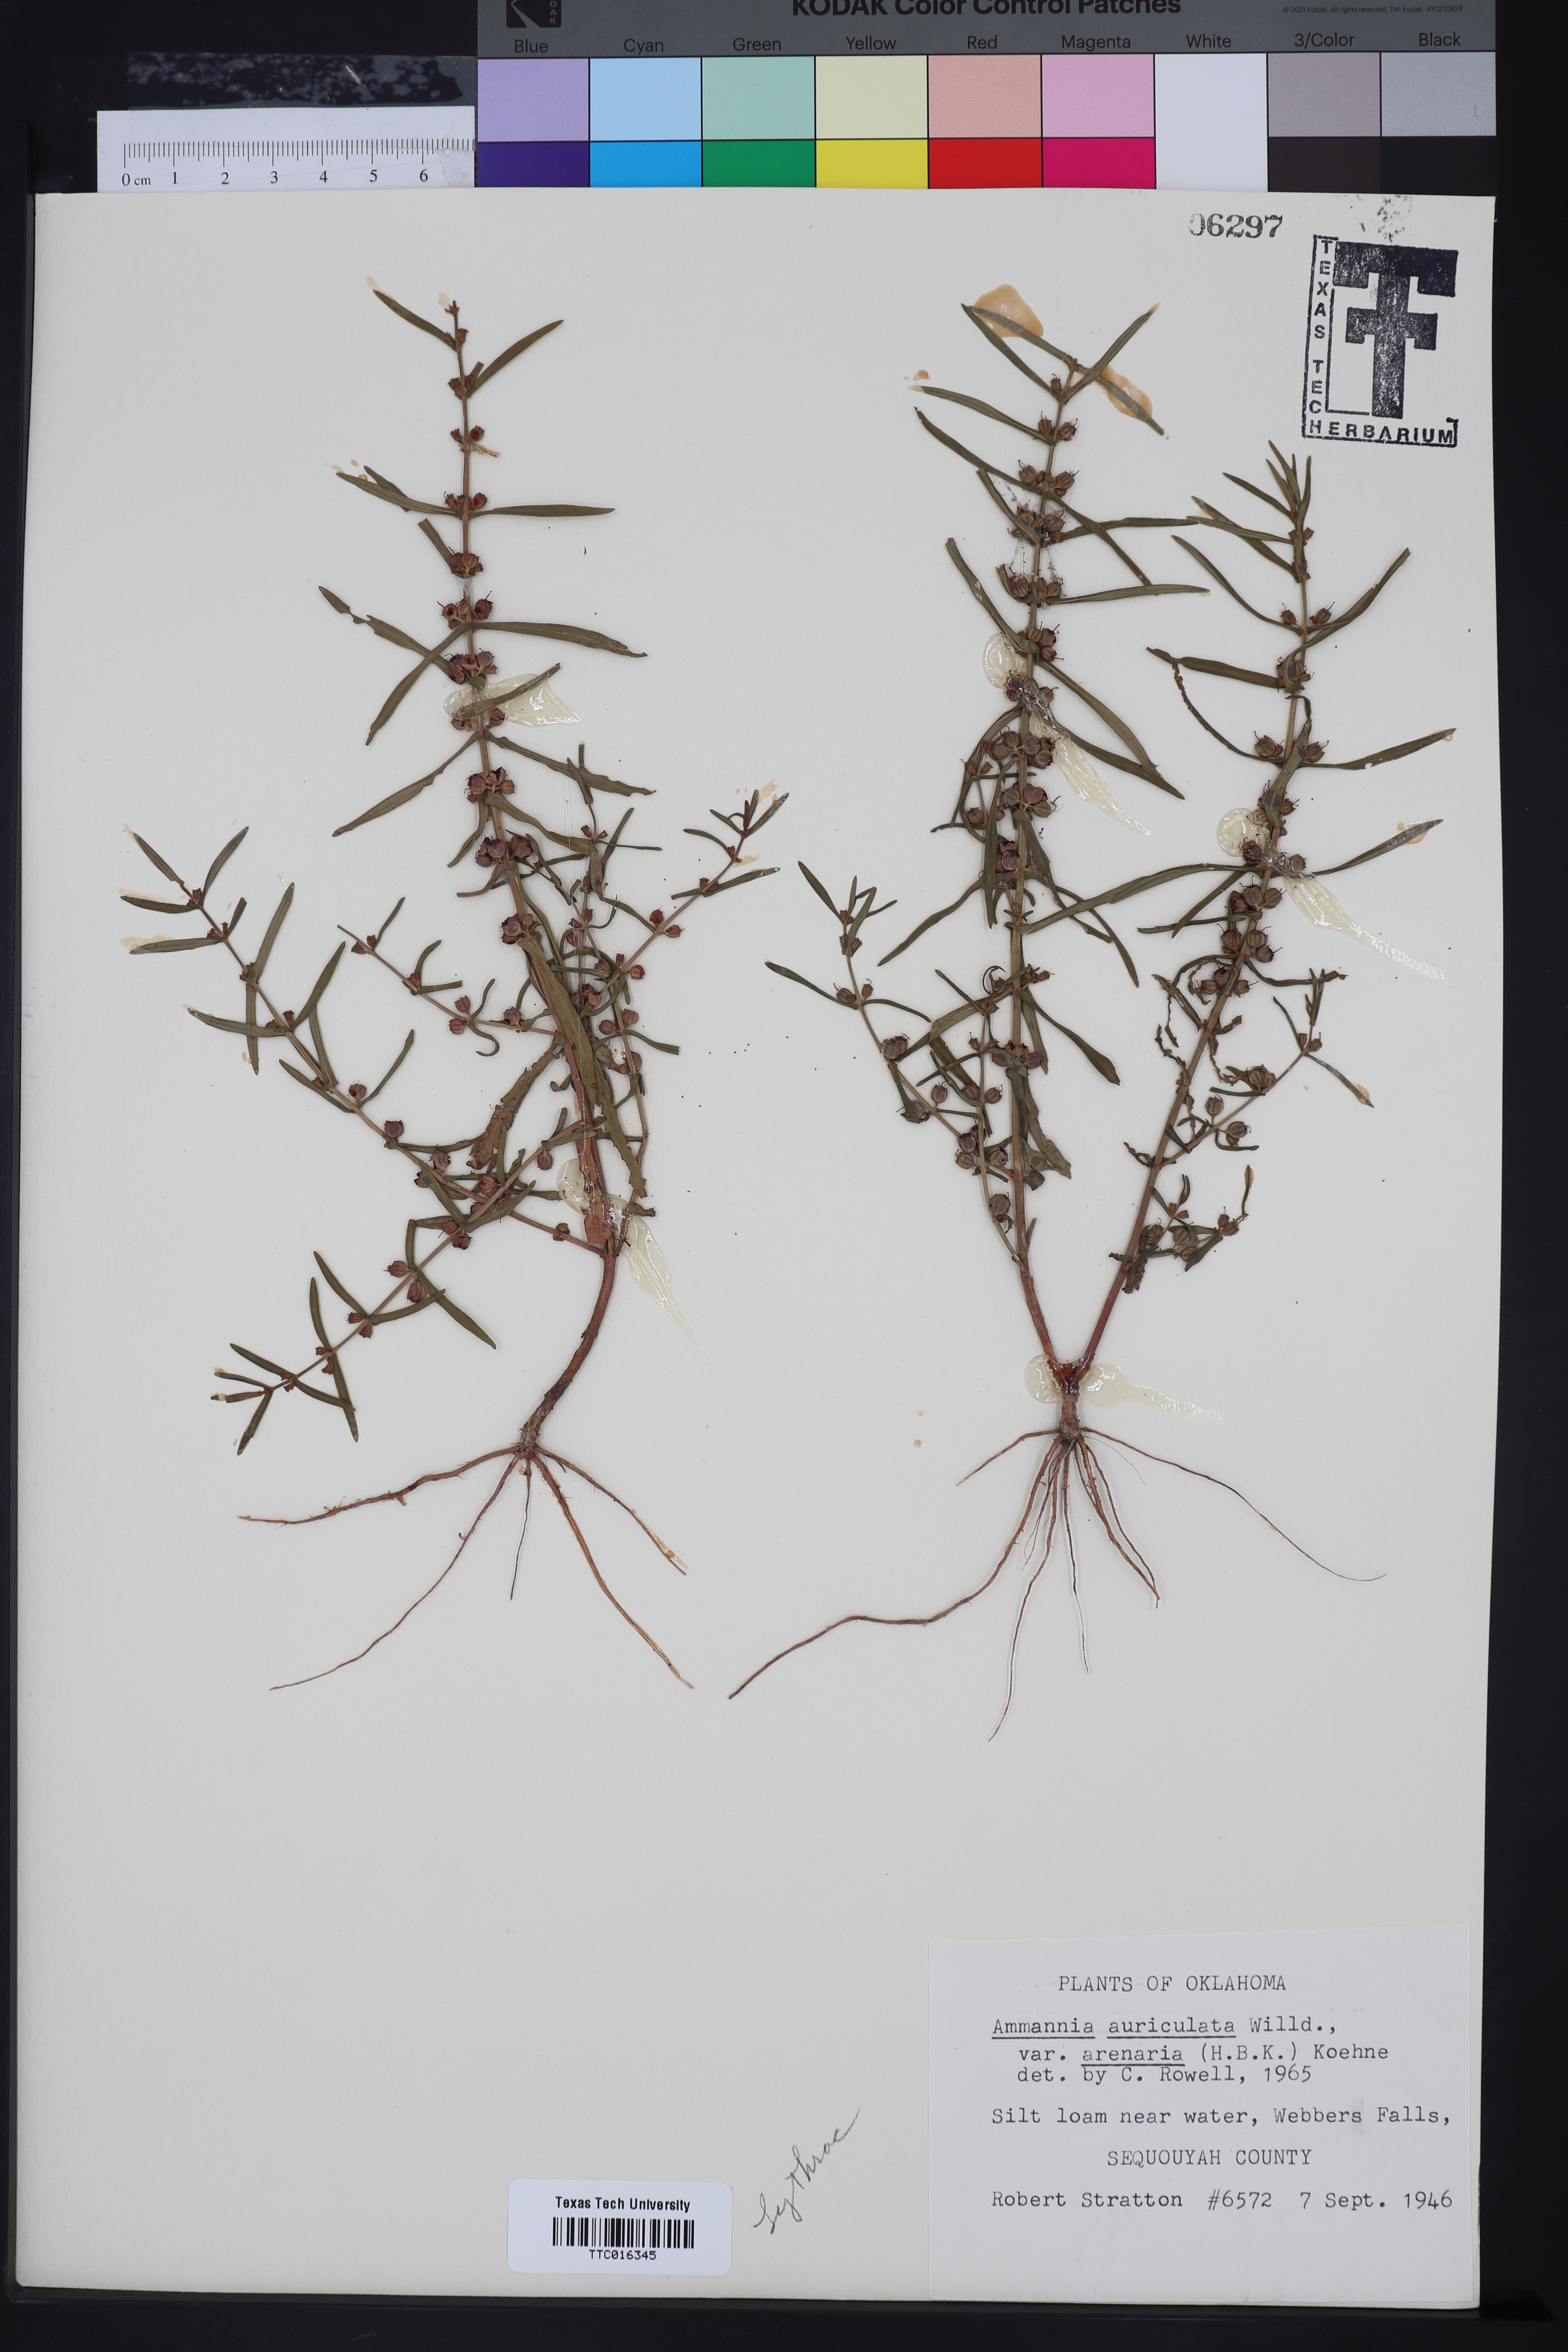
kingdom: Plantae
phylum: Tracheophyta
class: Magnoliopsida
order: Myrtales
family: Lythraceae
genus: Ammannia
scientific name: Ammannia auriculata
